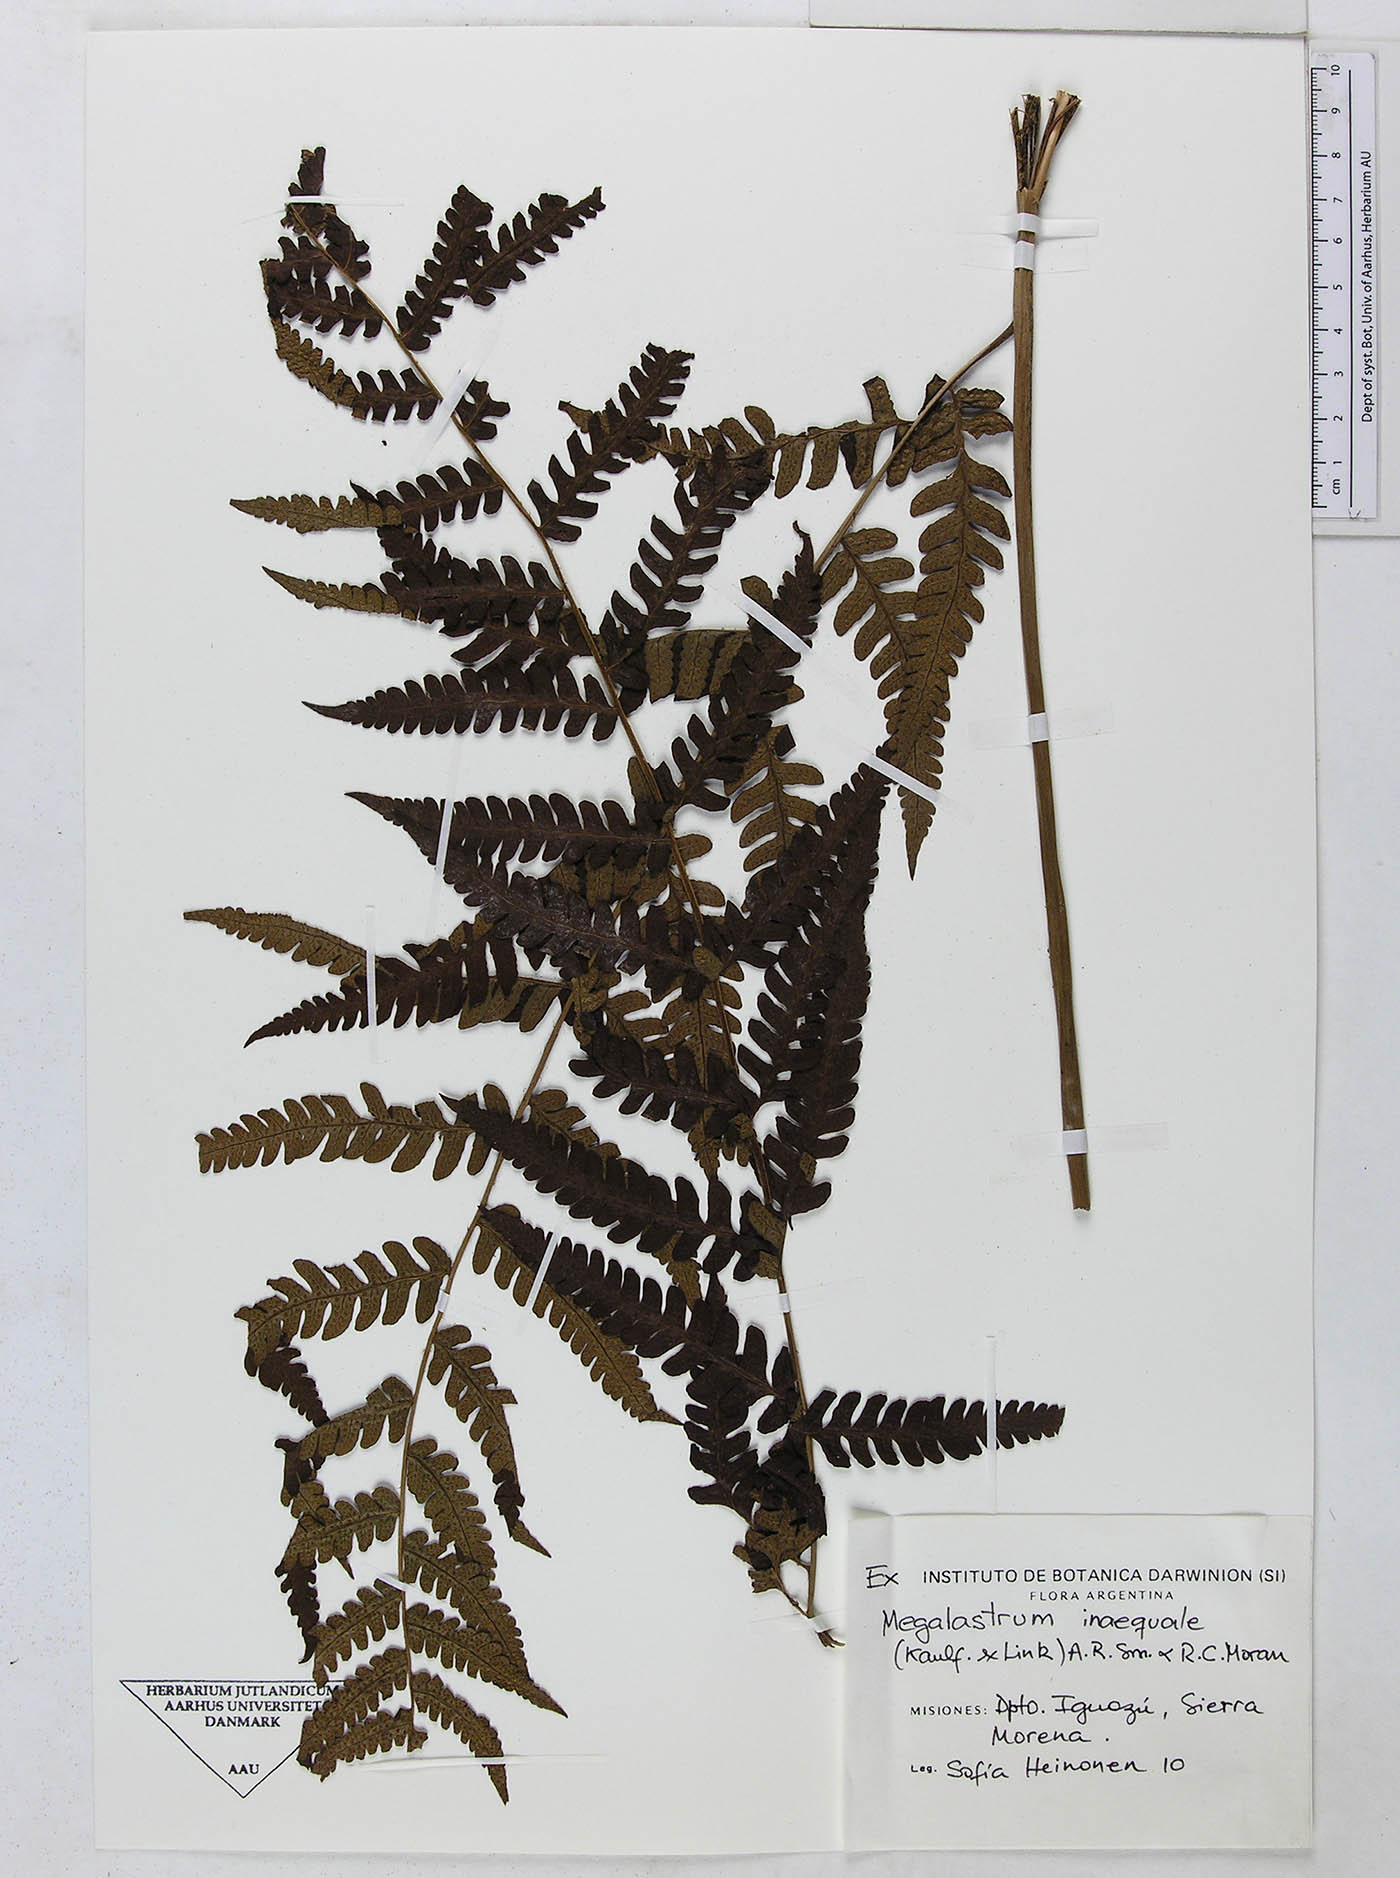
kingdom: Plantae
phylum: Tracheophyta
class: Polypodiopsida
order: Polypodiales
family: Dryopteridaceae
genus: Megalastrum
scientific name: Megalastrum connexum
